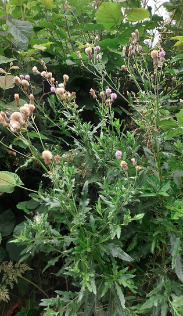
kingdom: Plantae
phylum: Tracheophyta
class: Magnoliopsida
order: Asterales
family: Asteraceae
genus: Cirsium
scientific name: Cirsium arvense
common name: Ager-tidsel
